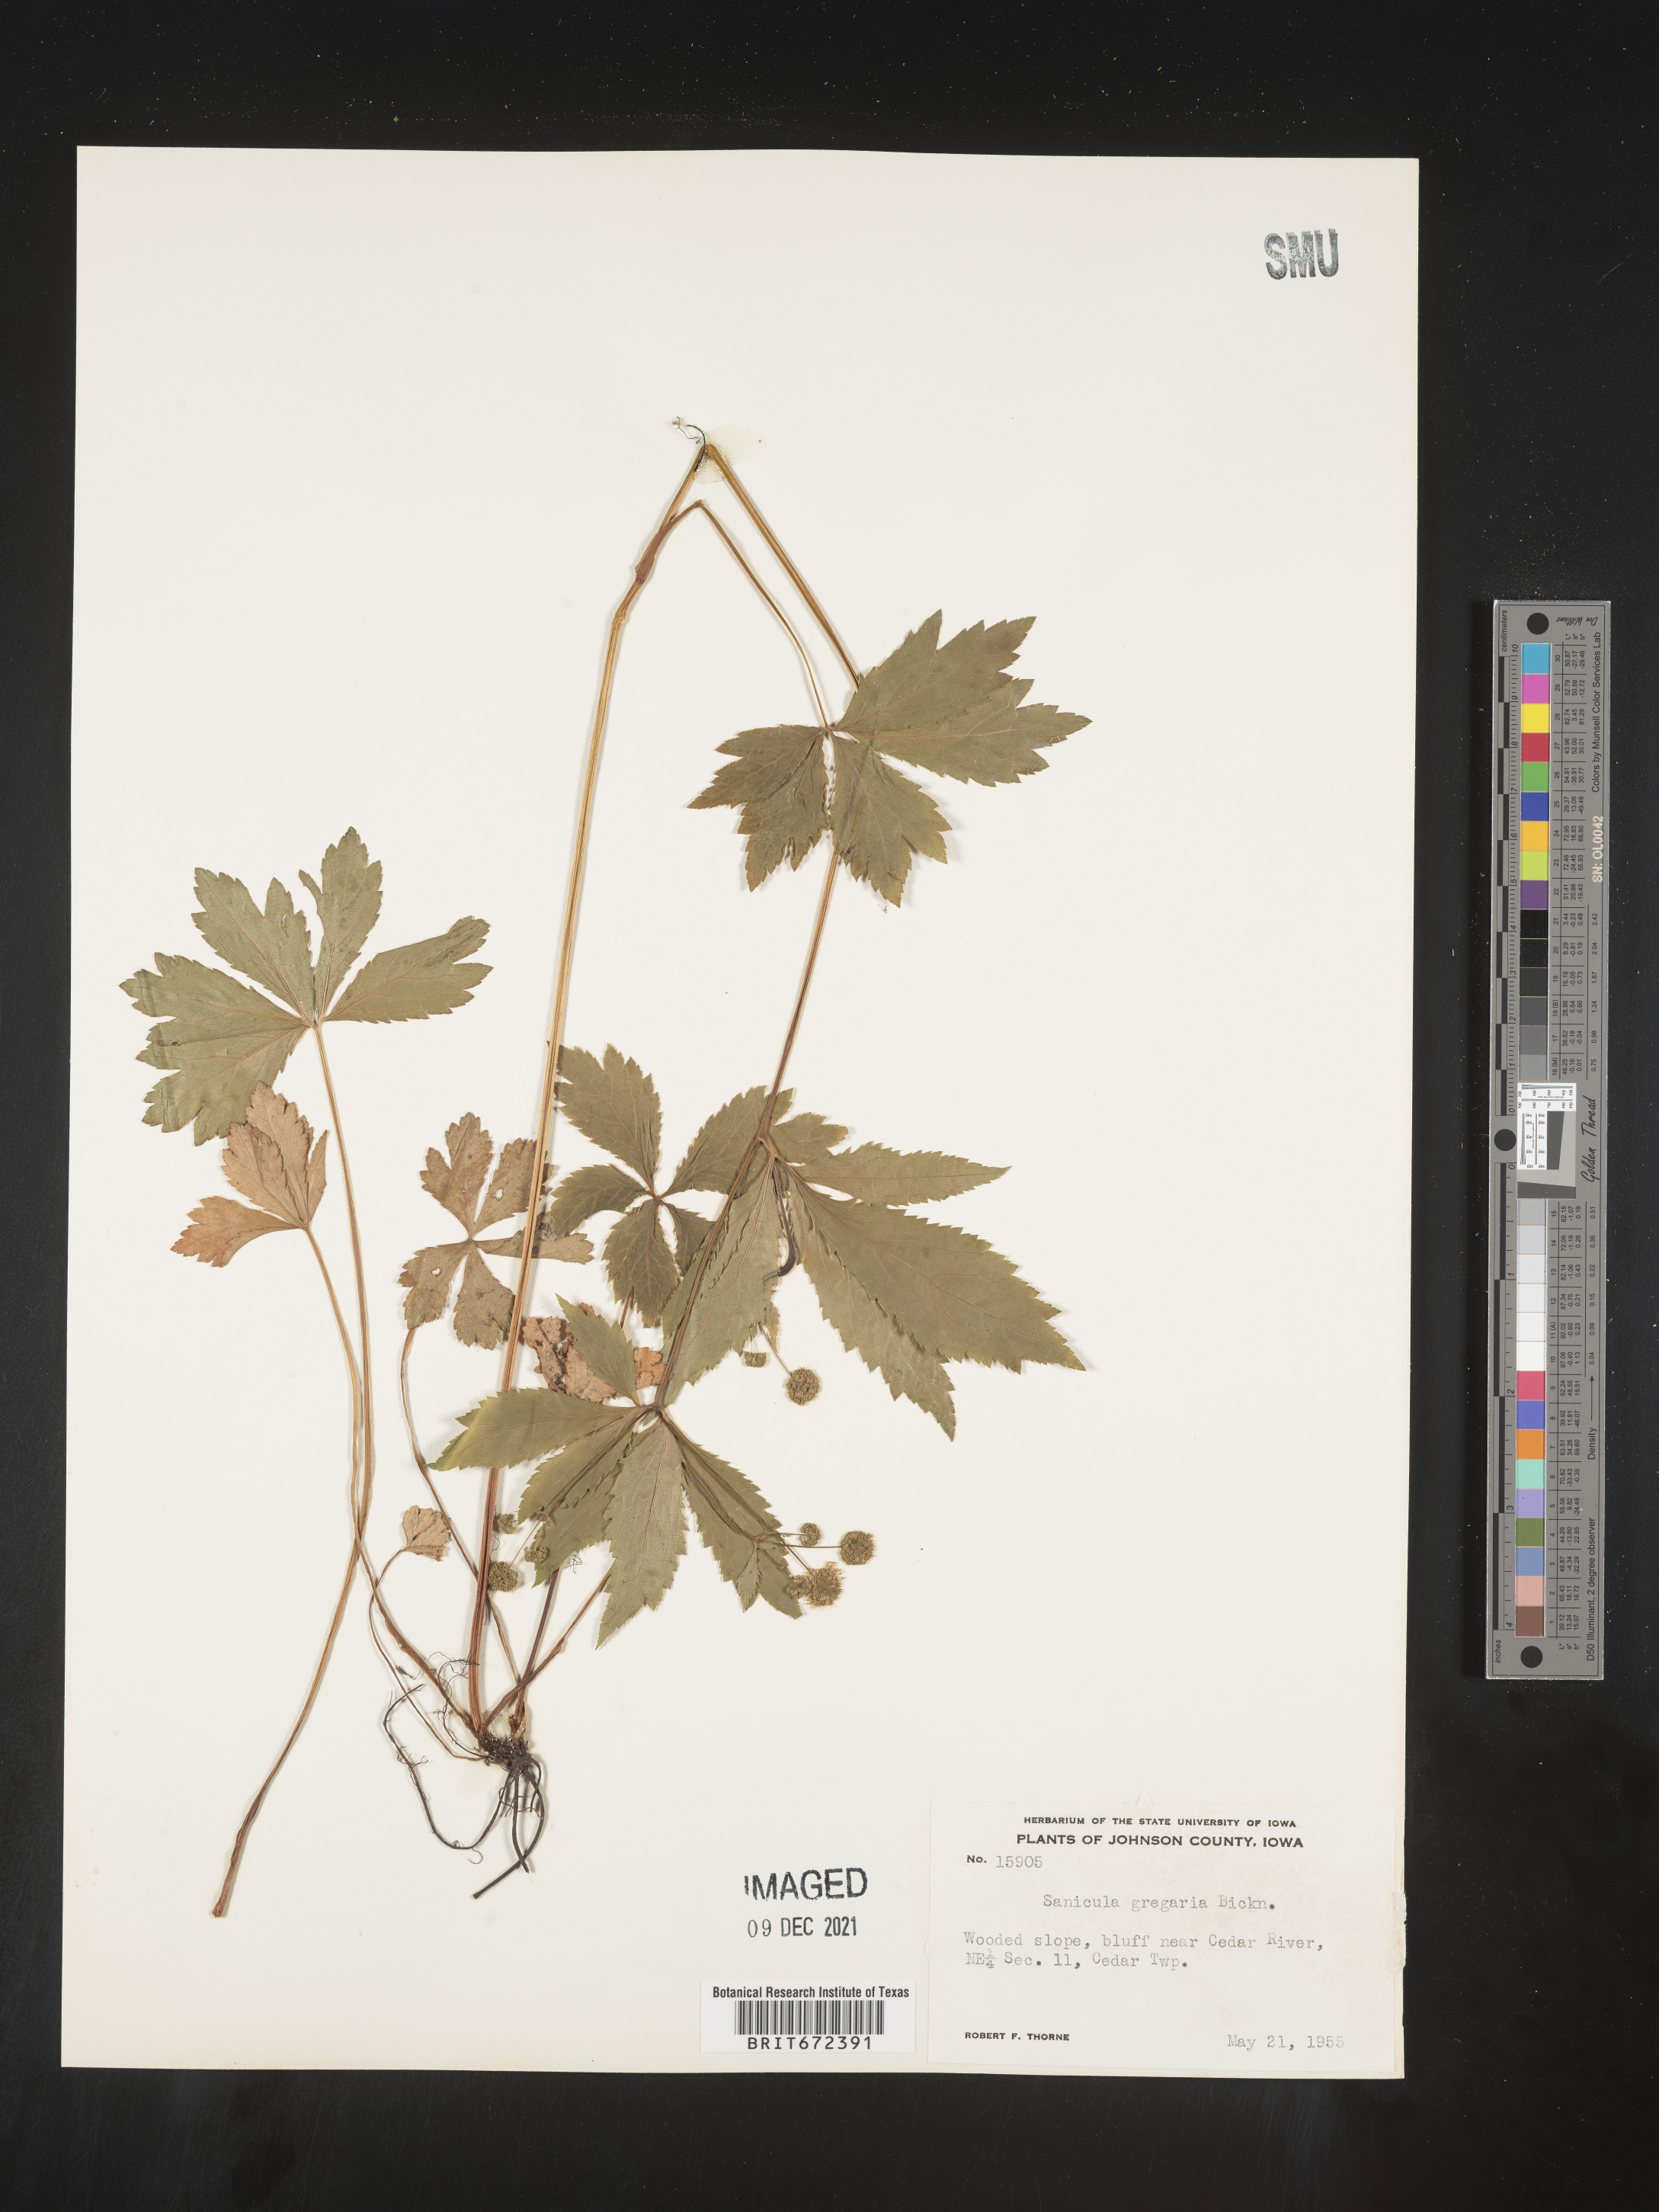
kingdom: Plantae
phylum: Tracheophyta
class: Magnoliopsida
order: Apiales
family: Apiaceae
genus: Sanicula
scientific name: Sanicula odorata
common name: Cluster sanicle
